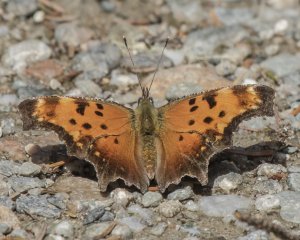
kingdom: Animalia
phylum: Arthropoda
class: Insecta
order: Lepidoptera
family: Nymphalidae
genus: Polygonia
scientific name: Polygonia progne
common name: Gray Comma
